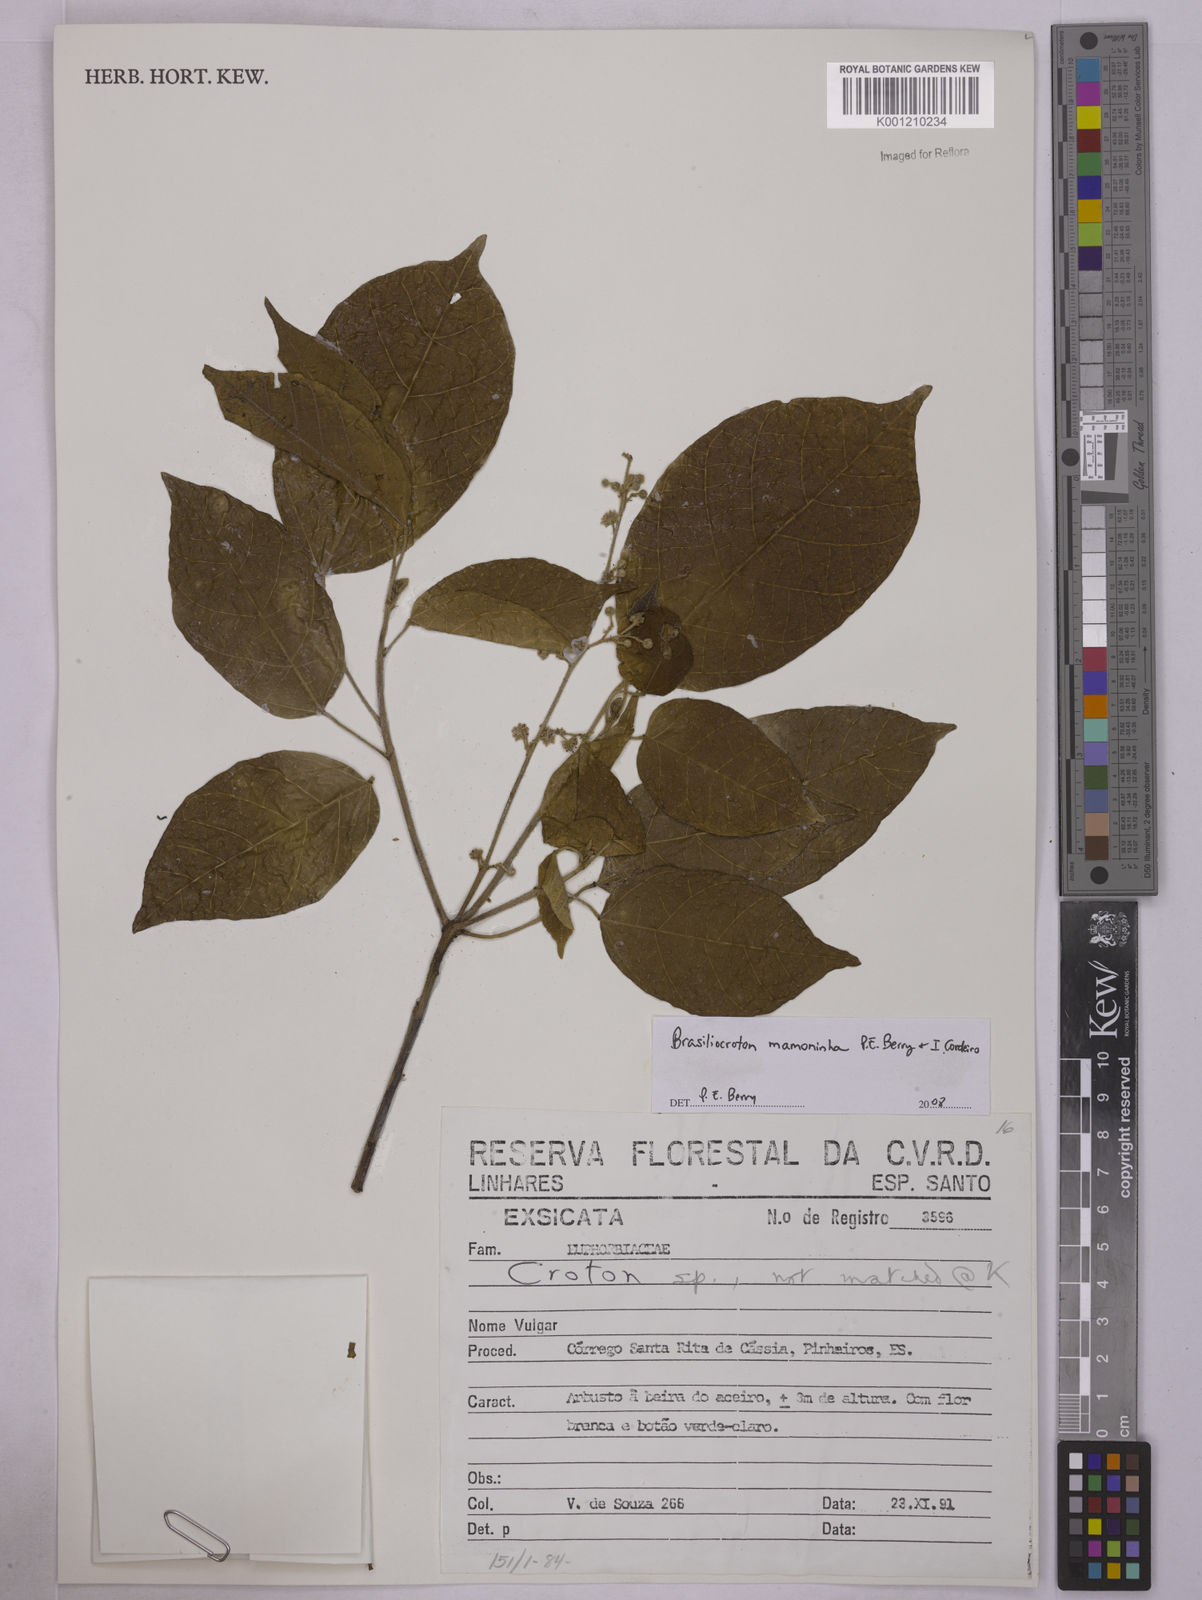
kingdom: Plantae
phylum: Tracheophyta
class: Magnoliopsida
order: Malpighiales
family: Euphorbiaceae
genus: Brasiliocroton
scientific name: Brasiliocroton mamoninha
